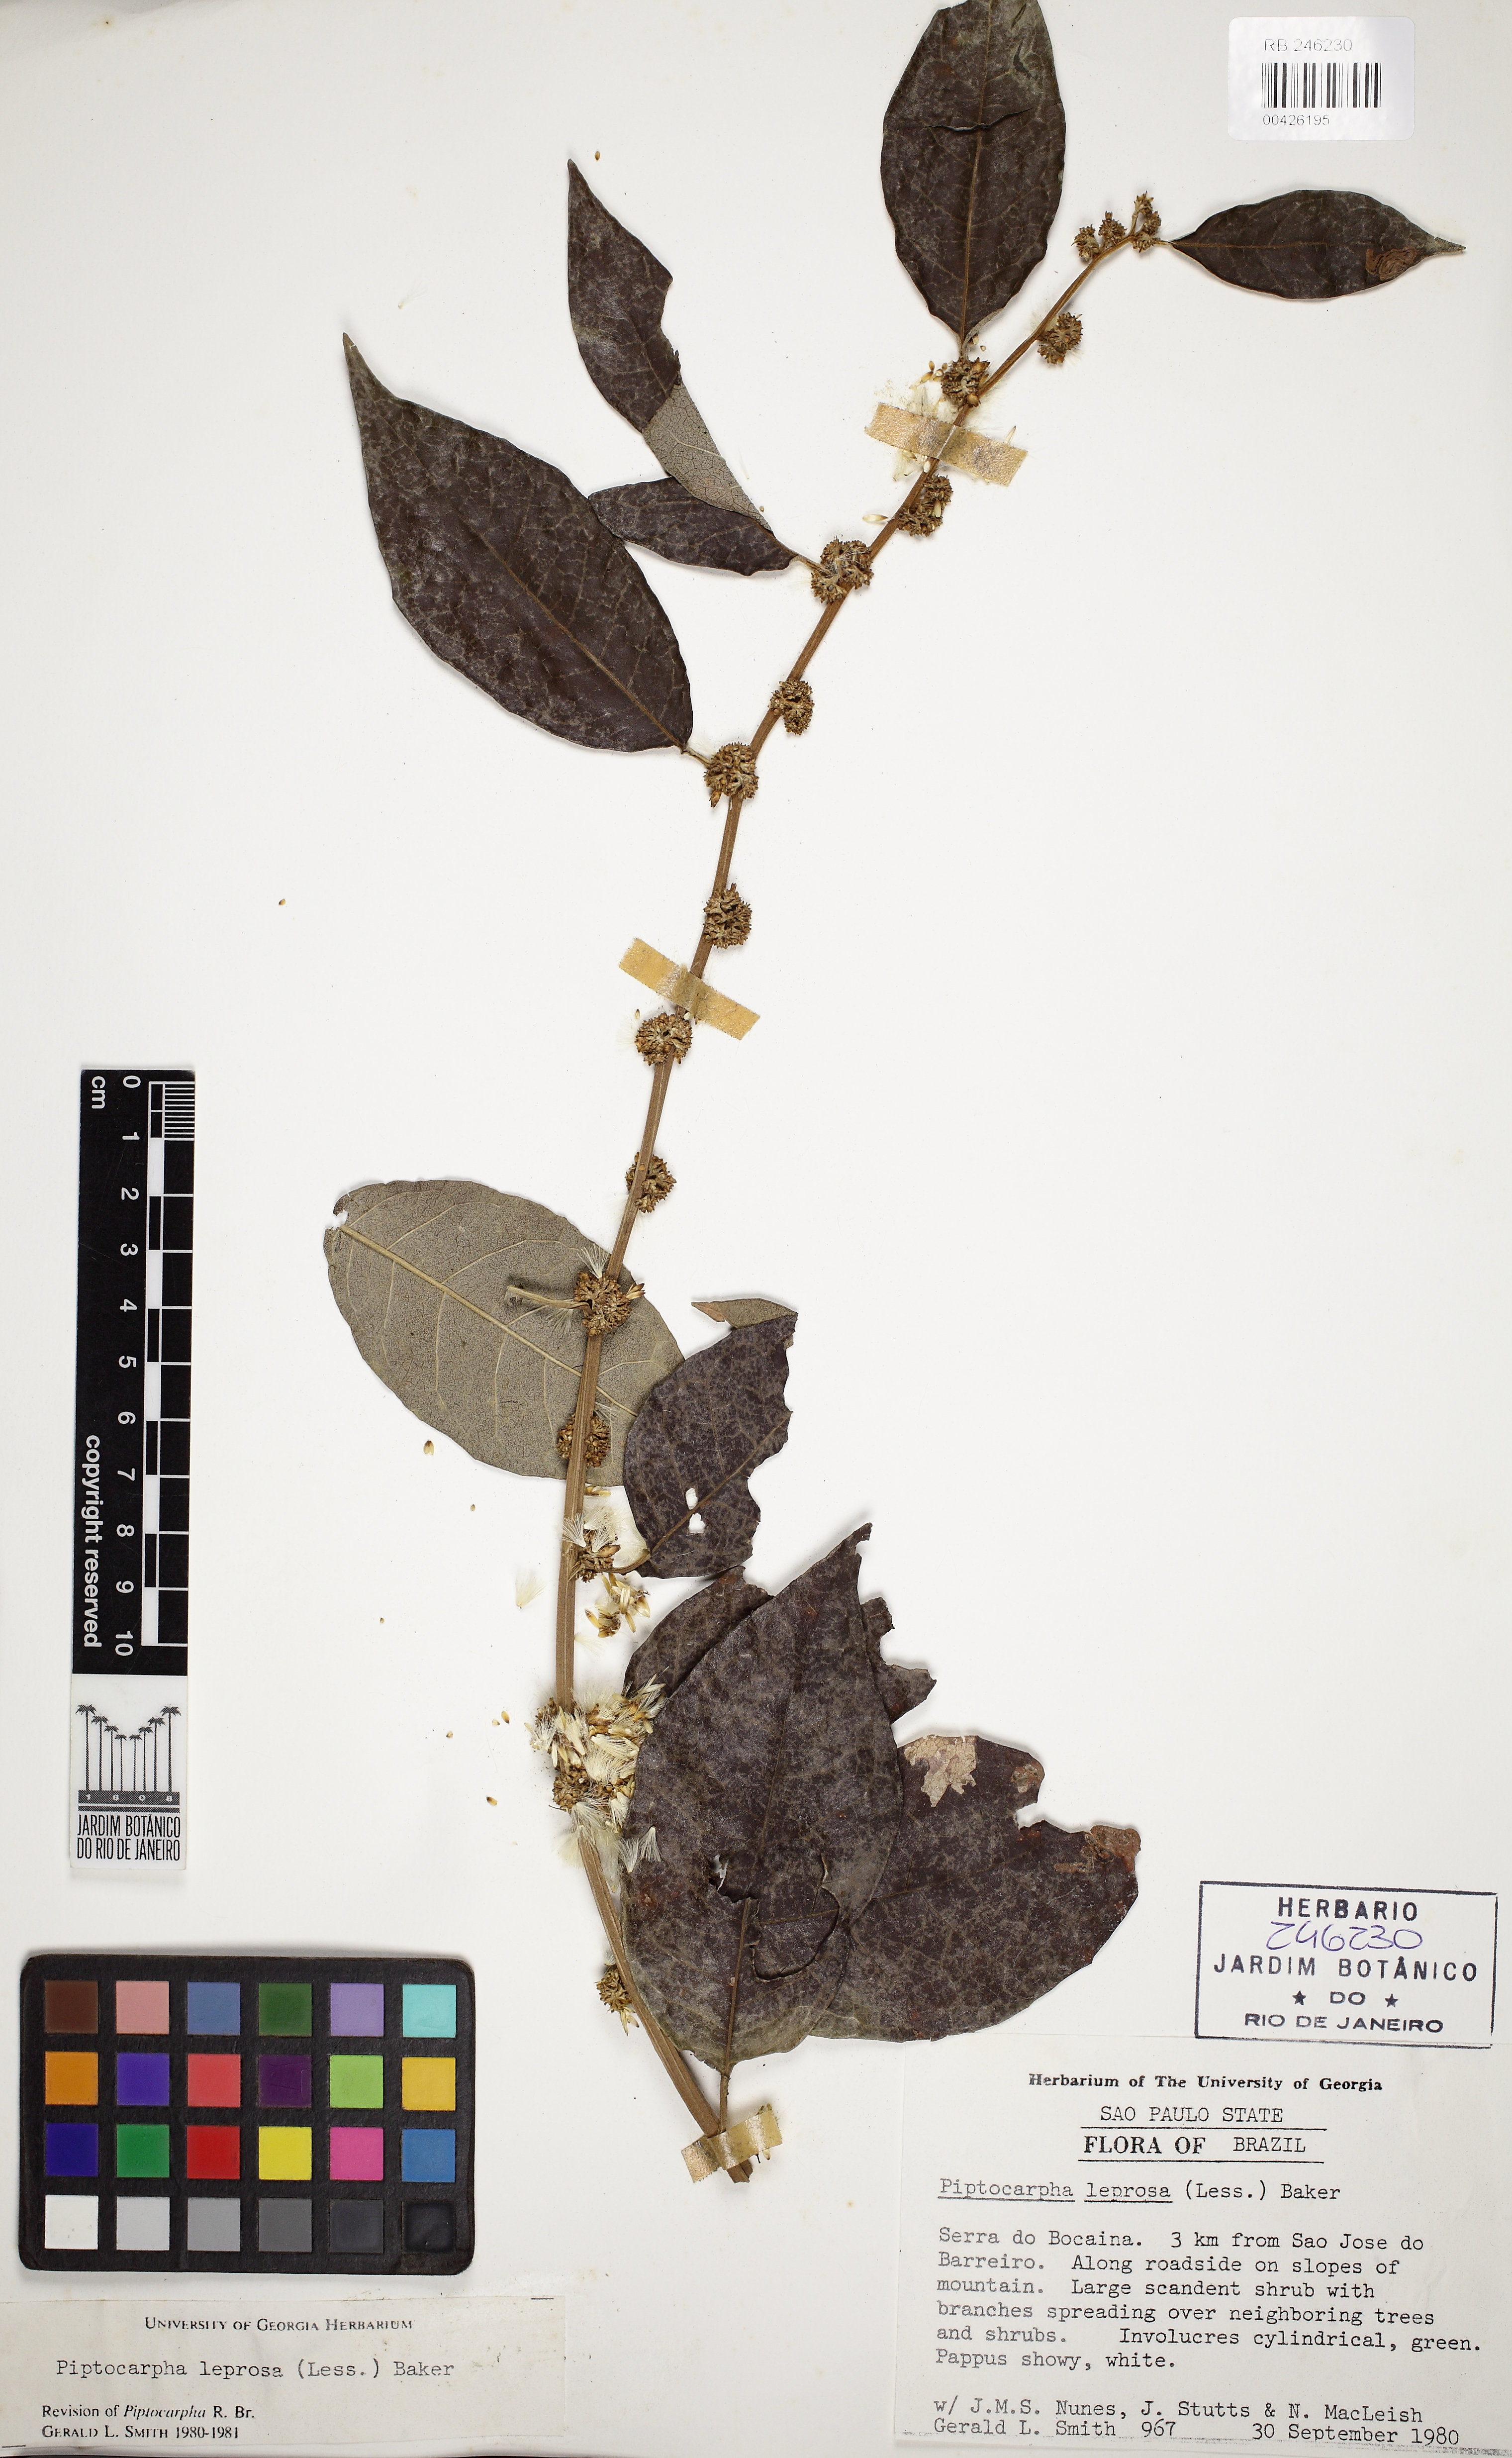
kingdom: Plantae
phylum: Tracheophyta
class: Magnoliopsida
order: Asterales
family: Asteraceae
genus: Piptocarpha
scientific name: Piptocarpha leprosa
